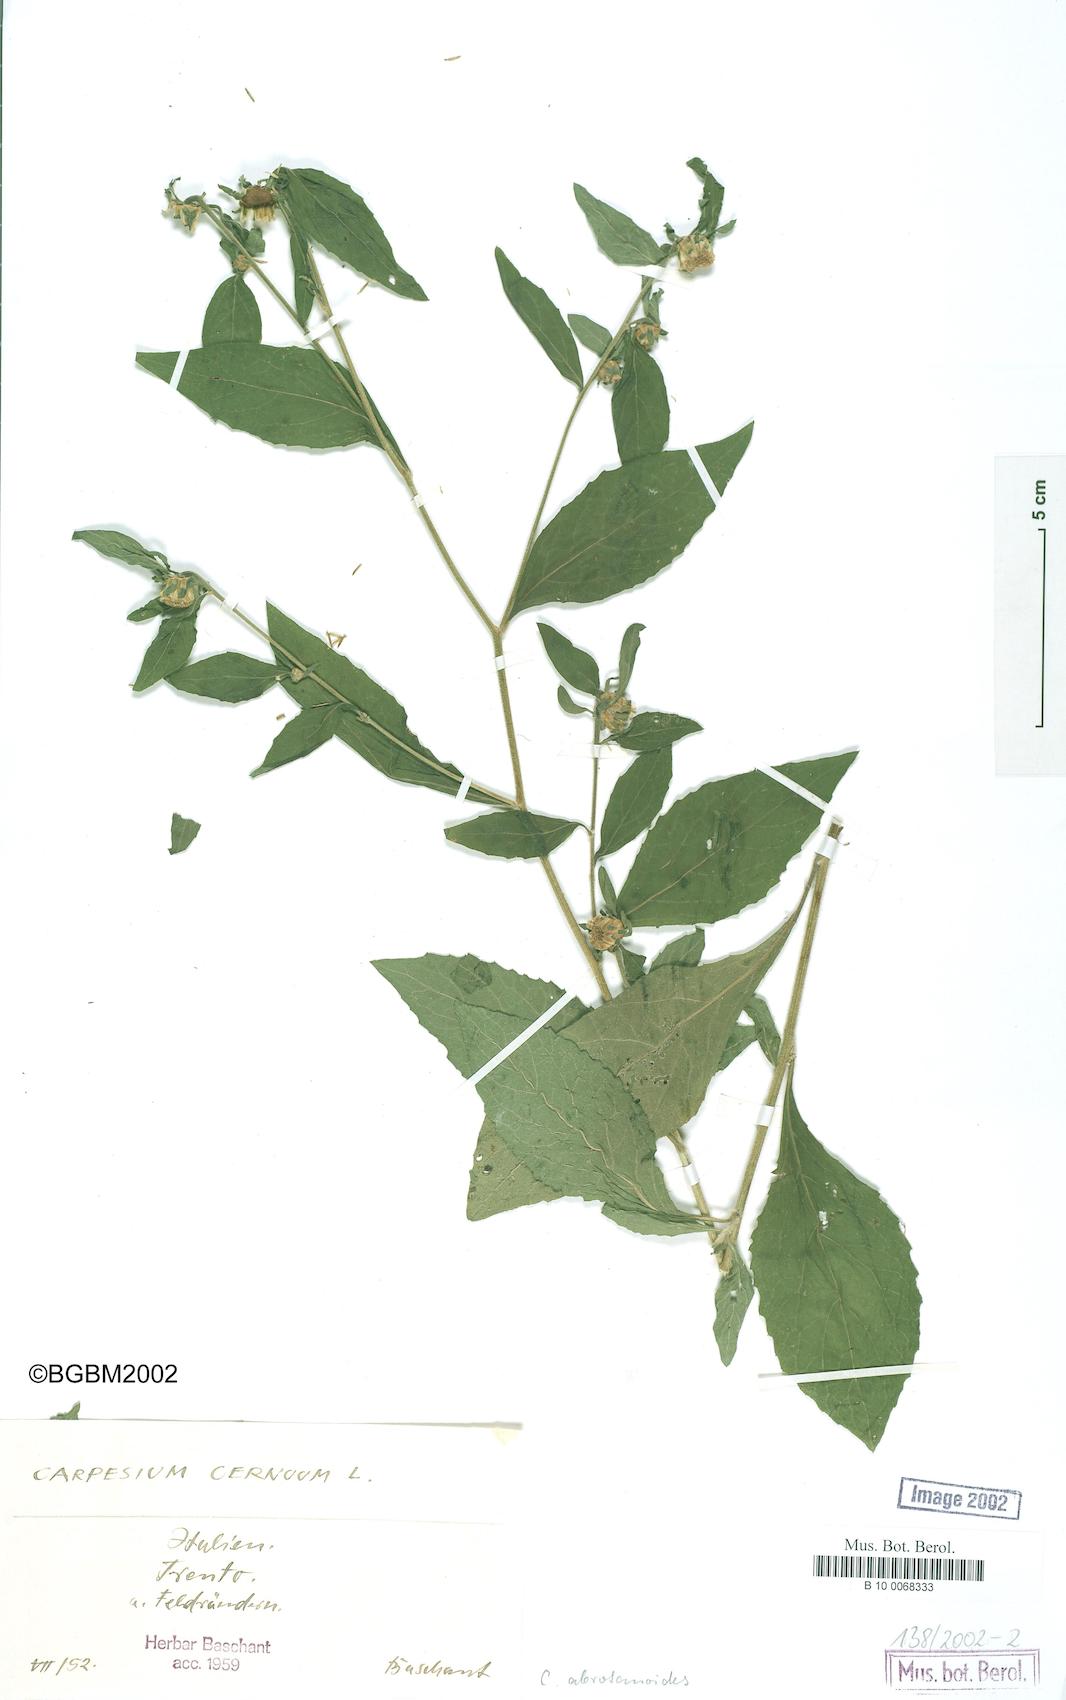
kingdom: Plantae
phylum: Tracheophyta
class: Magnoliopsida
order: Asterales
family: Asteraceae
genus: Carpesium
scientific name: Carpesium abrotanoides
